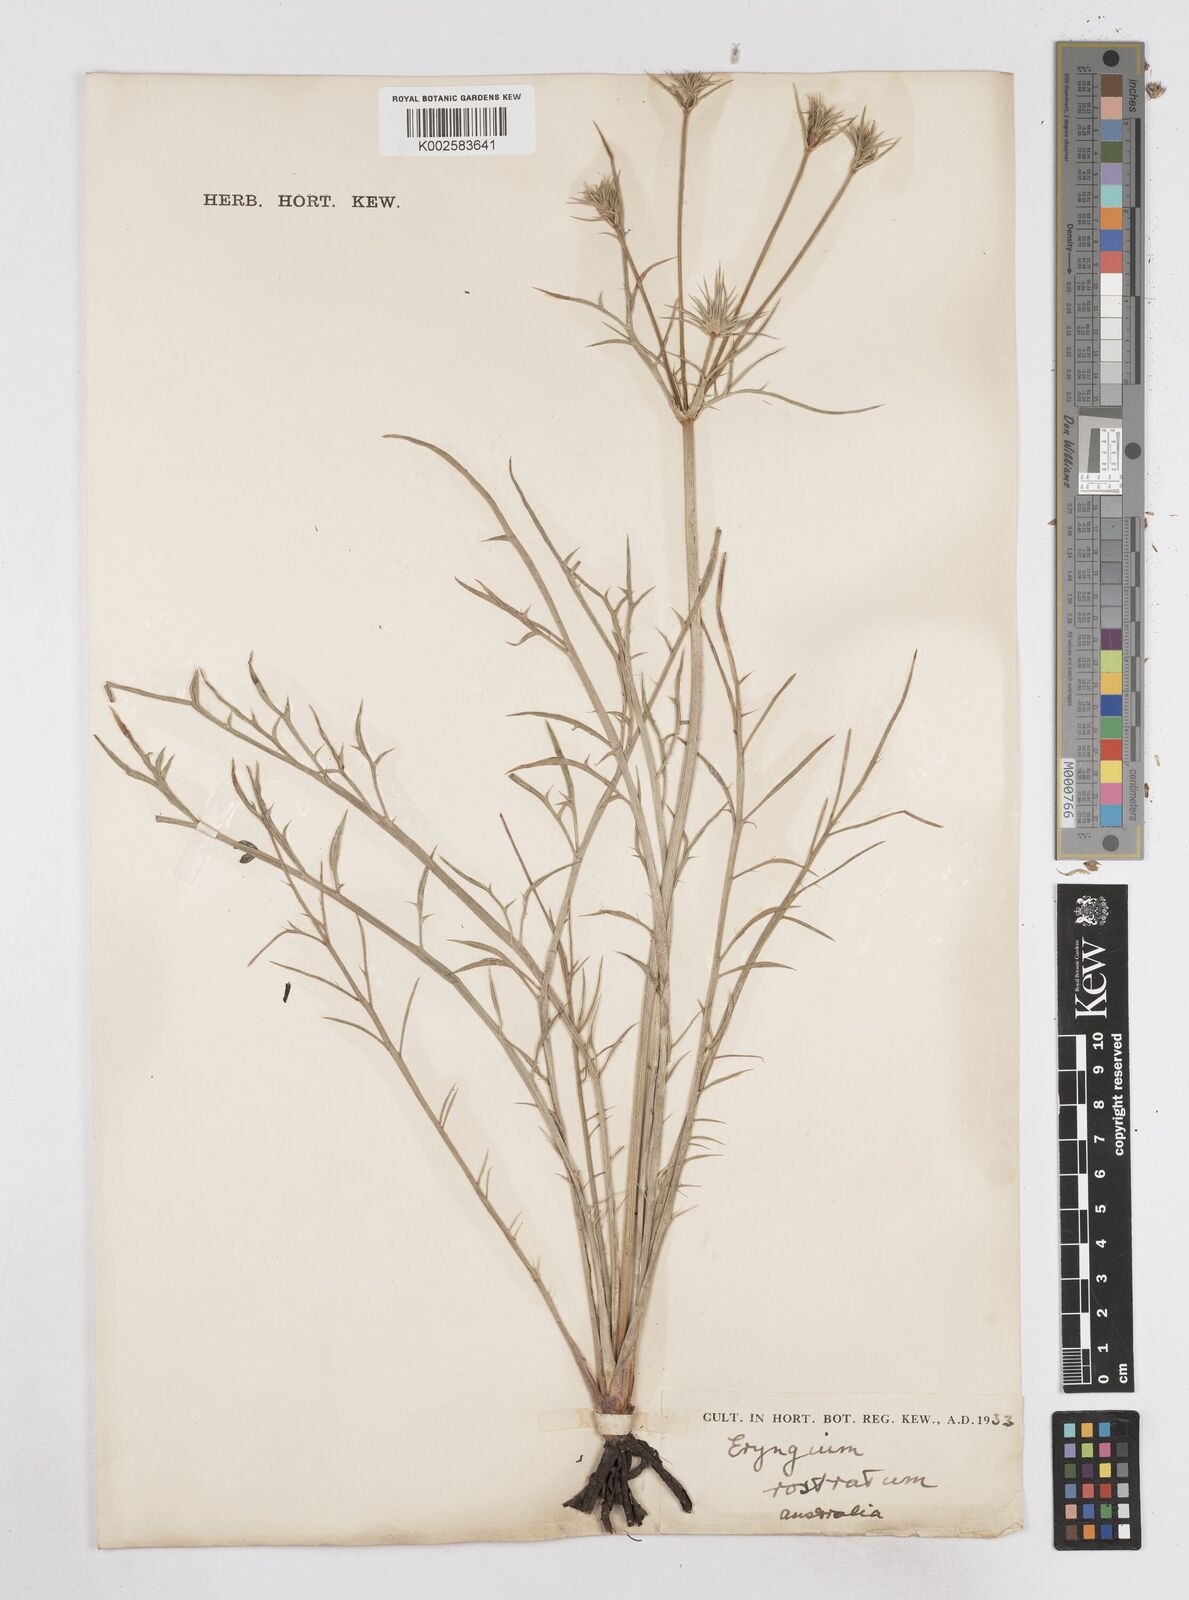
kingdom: Plantae
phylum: Tracheophyta
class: Magnoliopsida
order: Apiales
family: Apiaceae
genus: Eryngium
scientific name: Eryngium rostratum
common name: Blue eryngo
